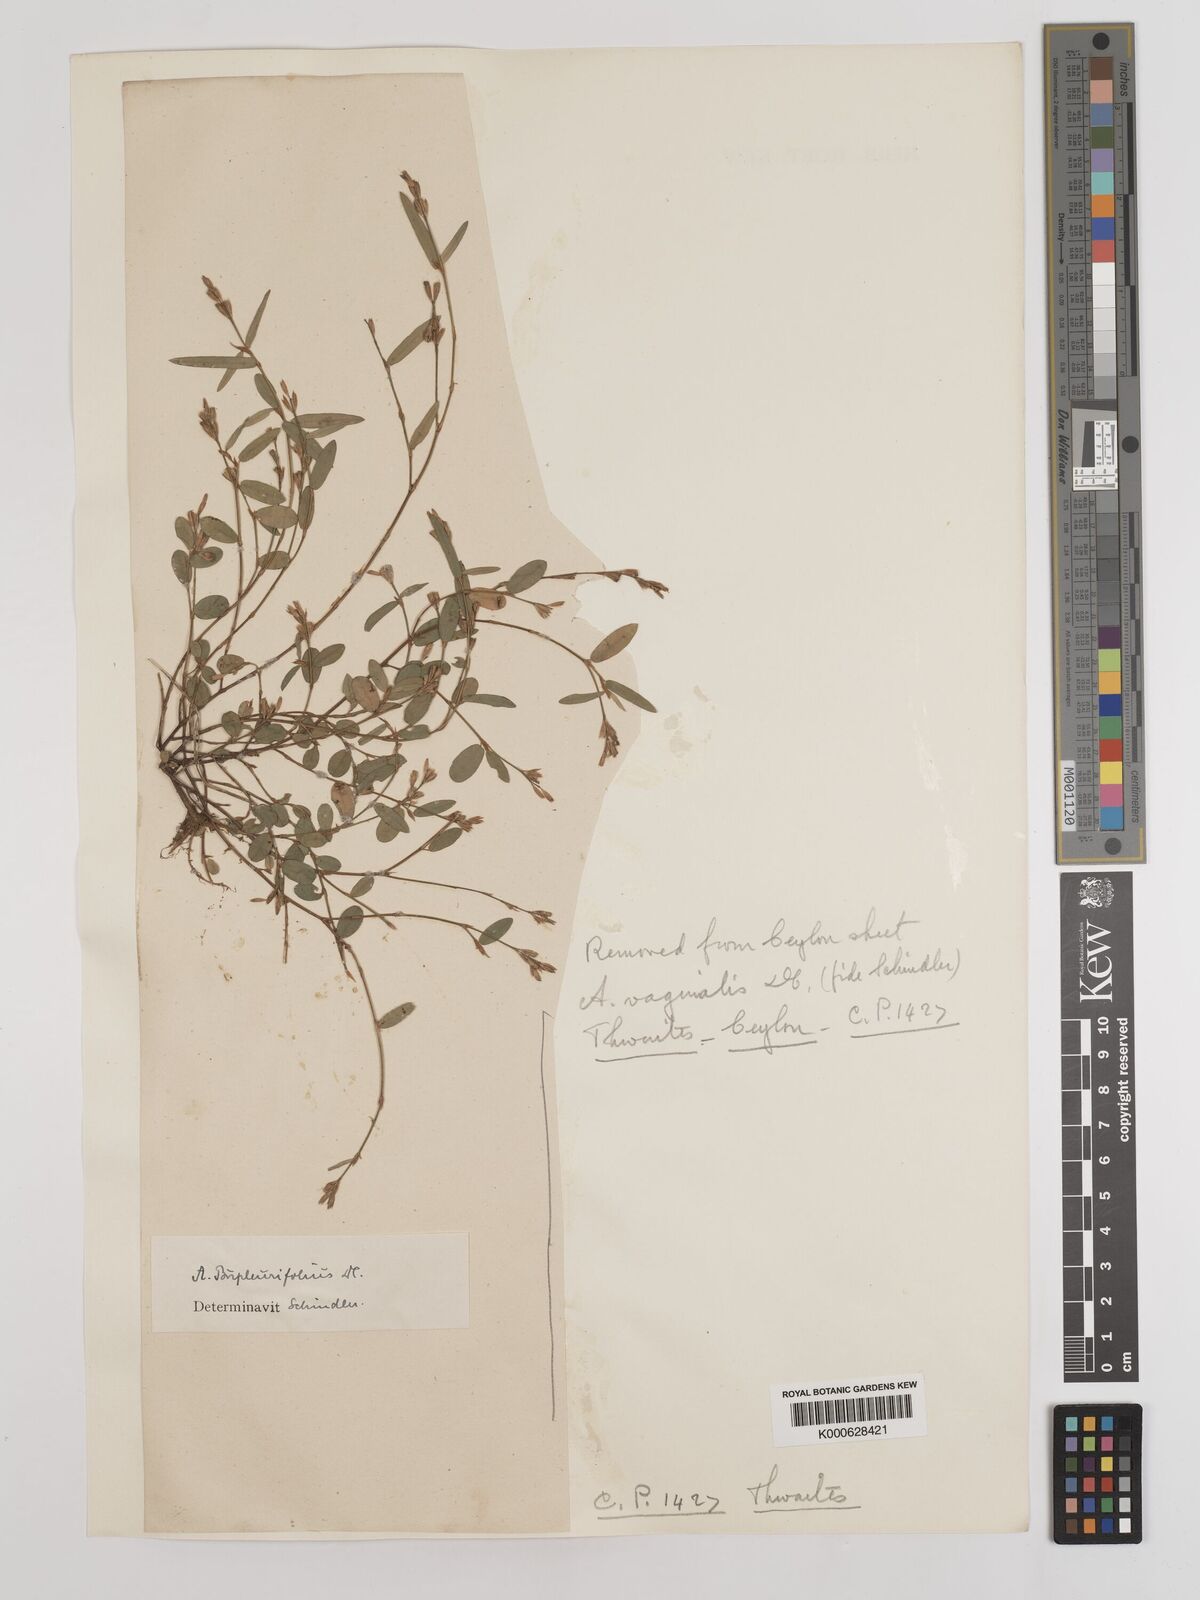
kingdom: Plantae
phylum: Tracheophyta
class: Magnoliopsida
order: Fabales
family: Fabaceae
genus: Alysicarpus
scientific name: Alysicarpus bupleurifolius
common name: Sweet alys
